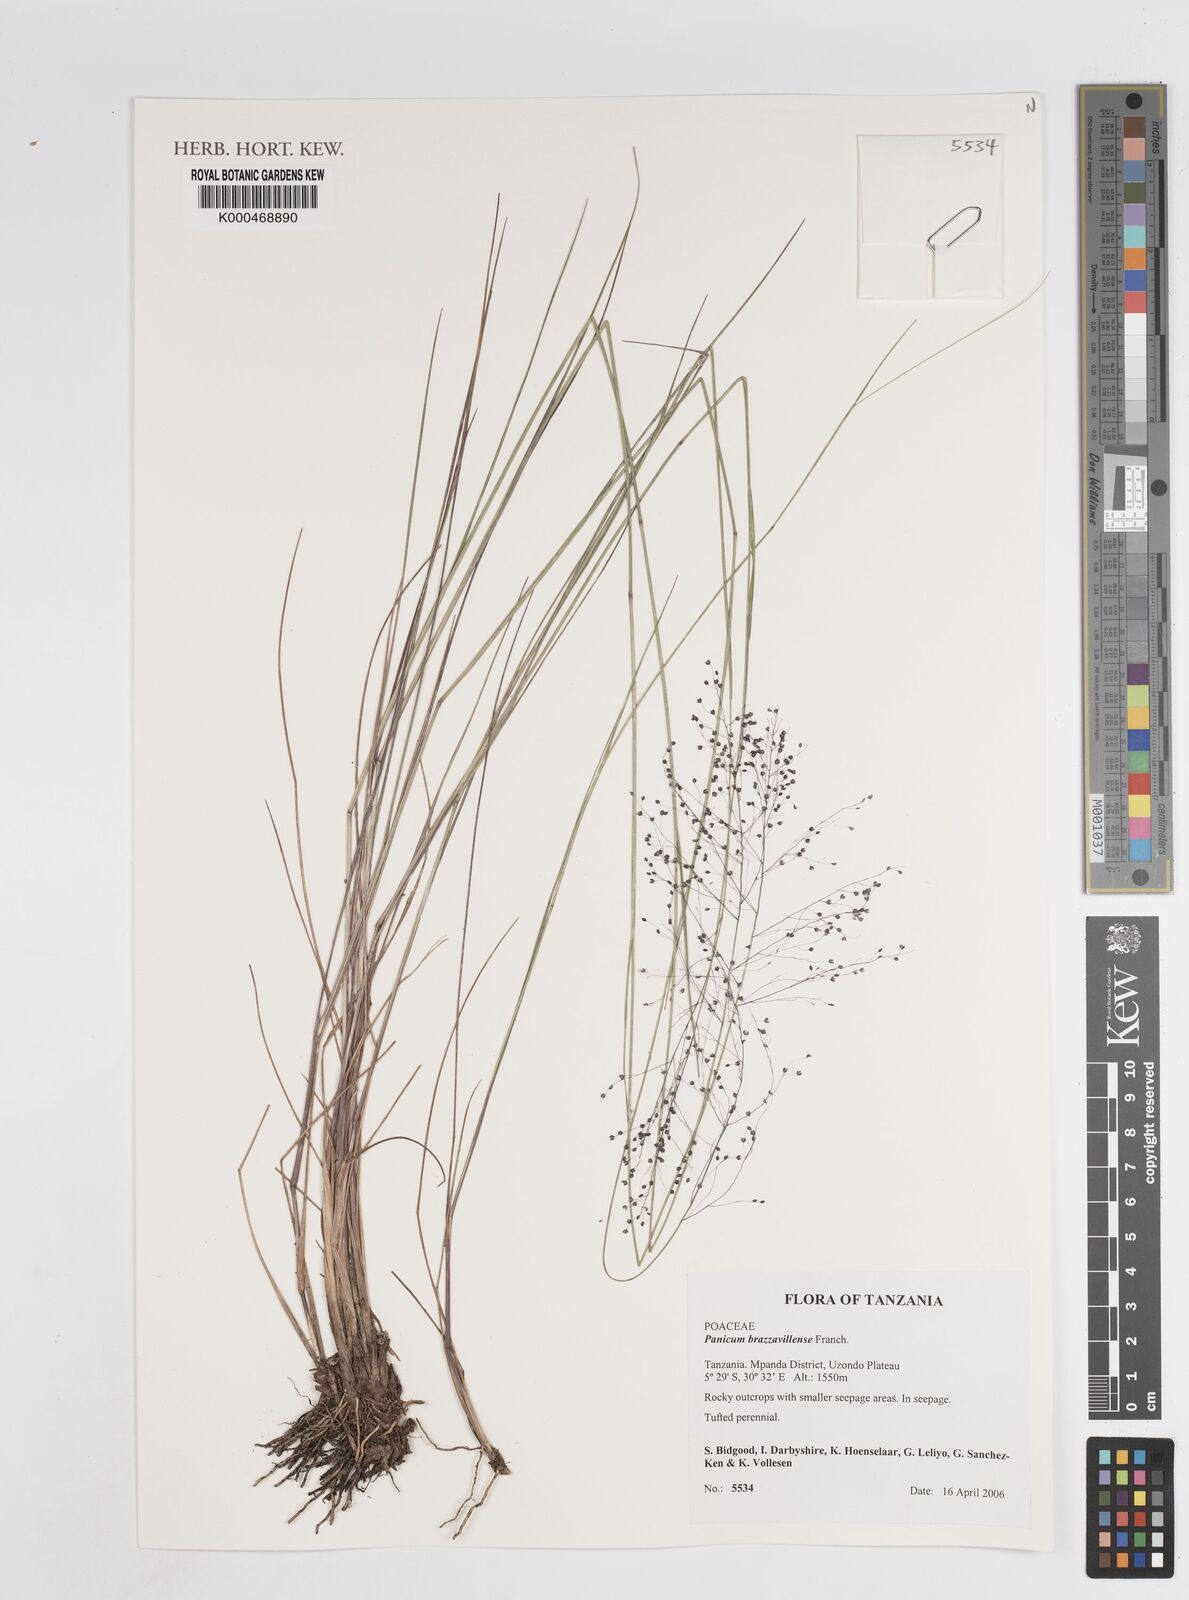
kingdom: Plantae
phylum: Tracheophyta
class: Liliopsida
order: Poales
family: Poaceae
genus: Trichanthecium
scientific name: Trichanthecium brazzavillense
